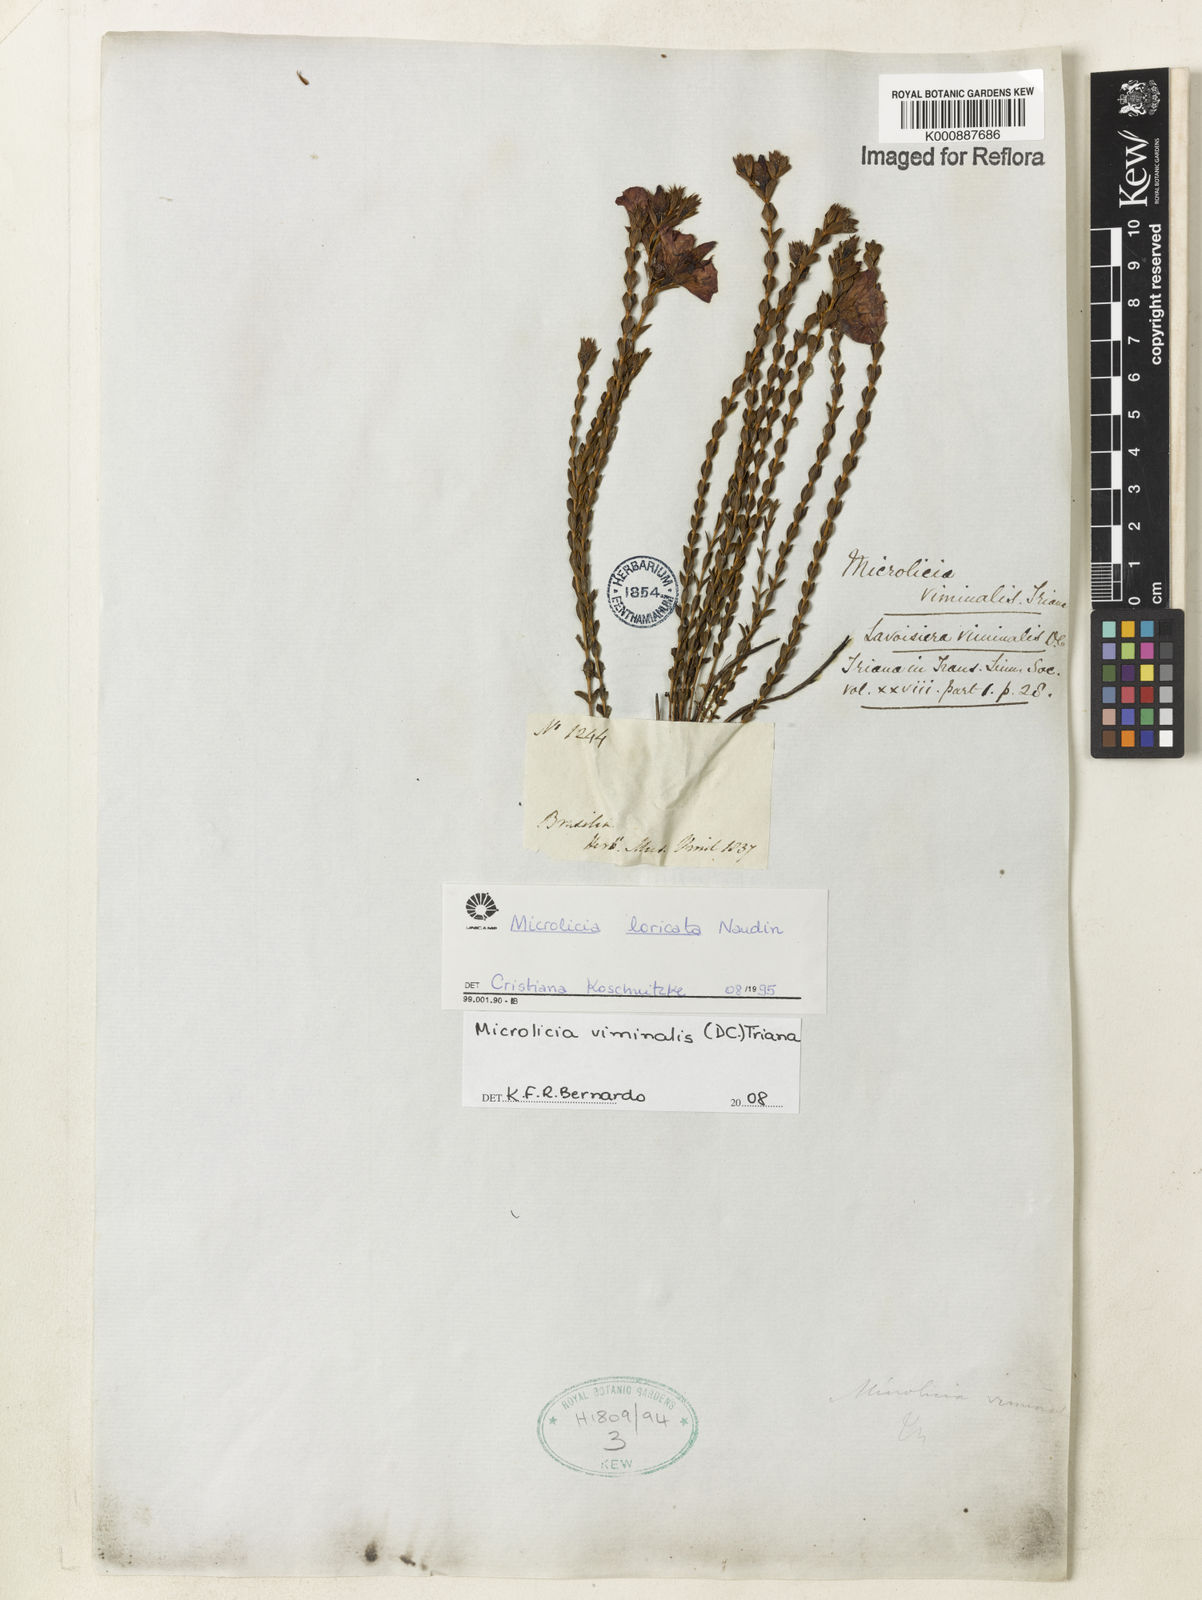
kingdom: Plantae
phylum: Tracheophyta
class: Magnoliopsida
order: Myrtales
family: Melastomataceae
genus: Microlicia
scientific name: Microlicia viminalis
